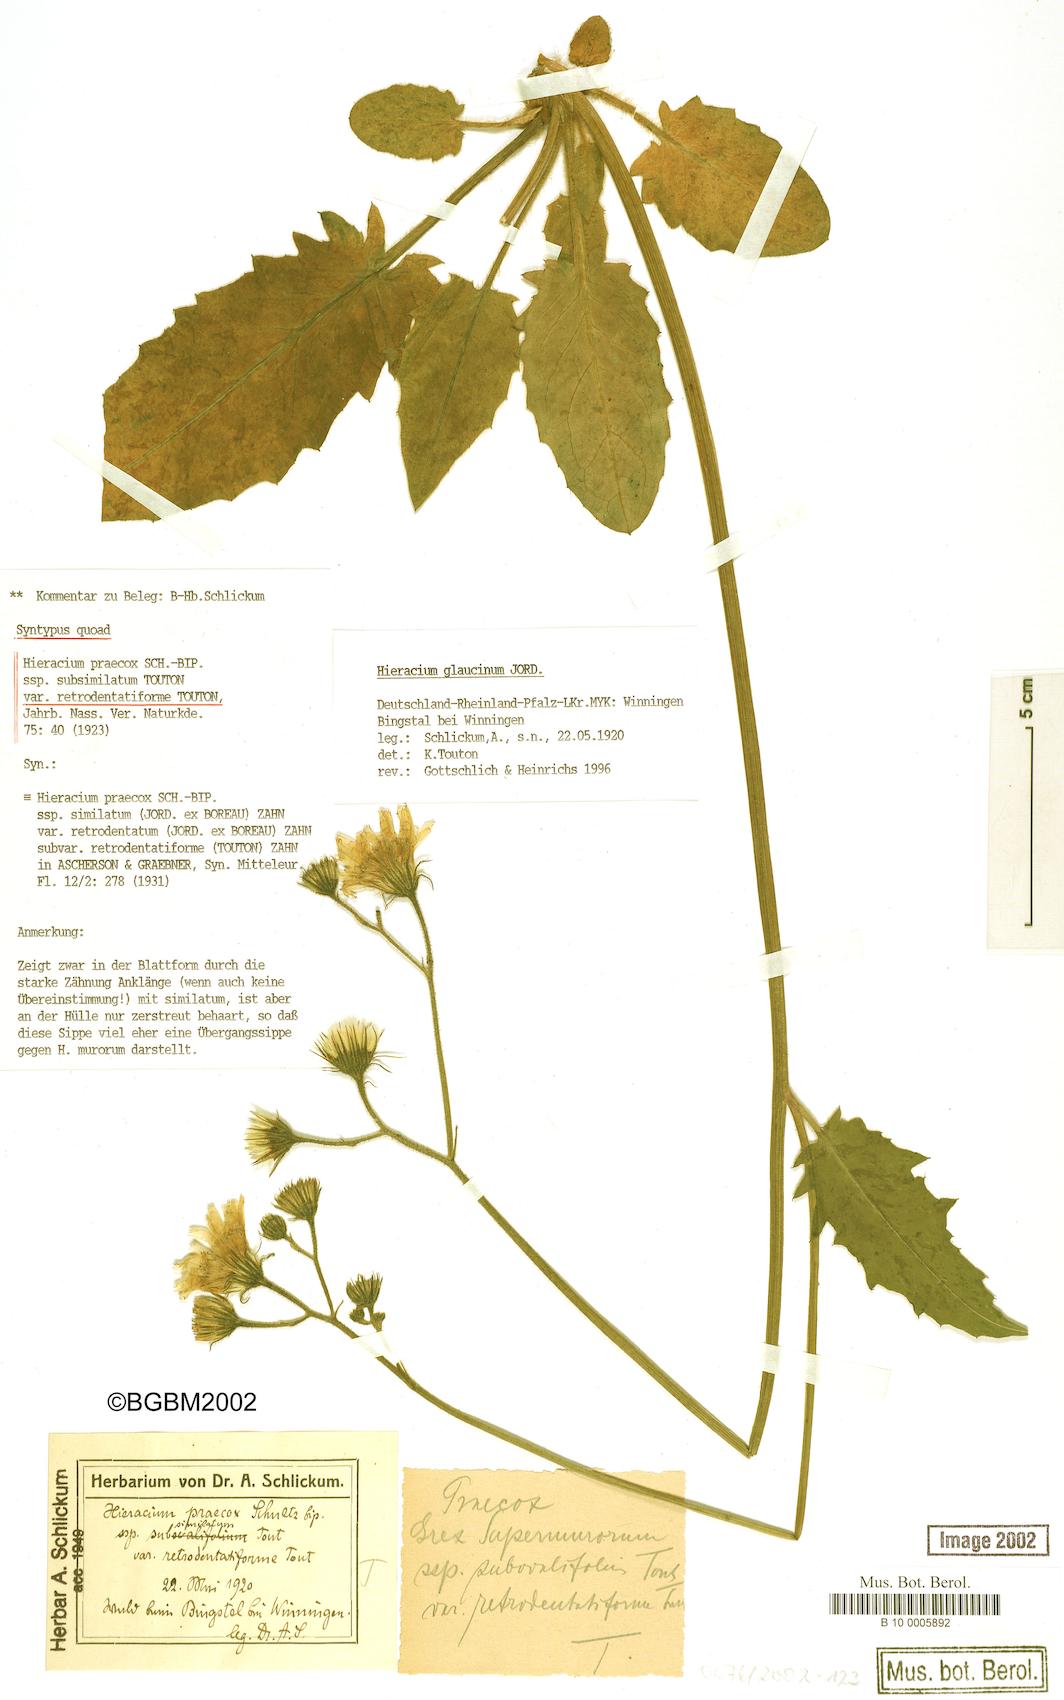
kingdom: Plantae
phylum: Tracheophyta
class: Magnoliopsida
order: Asterales
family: Asteraceae
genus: Hieracium
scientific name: Hieracium praecox
